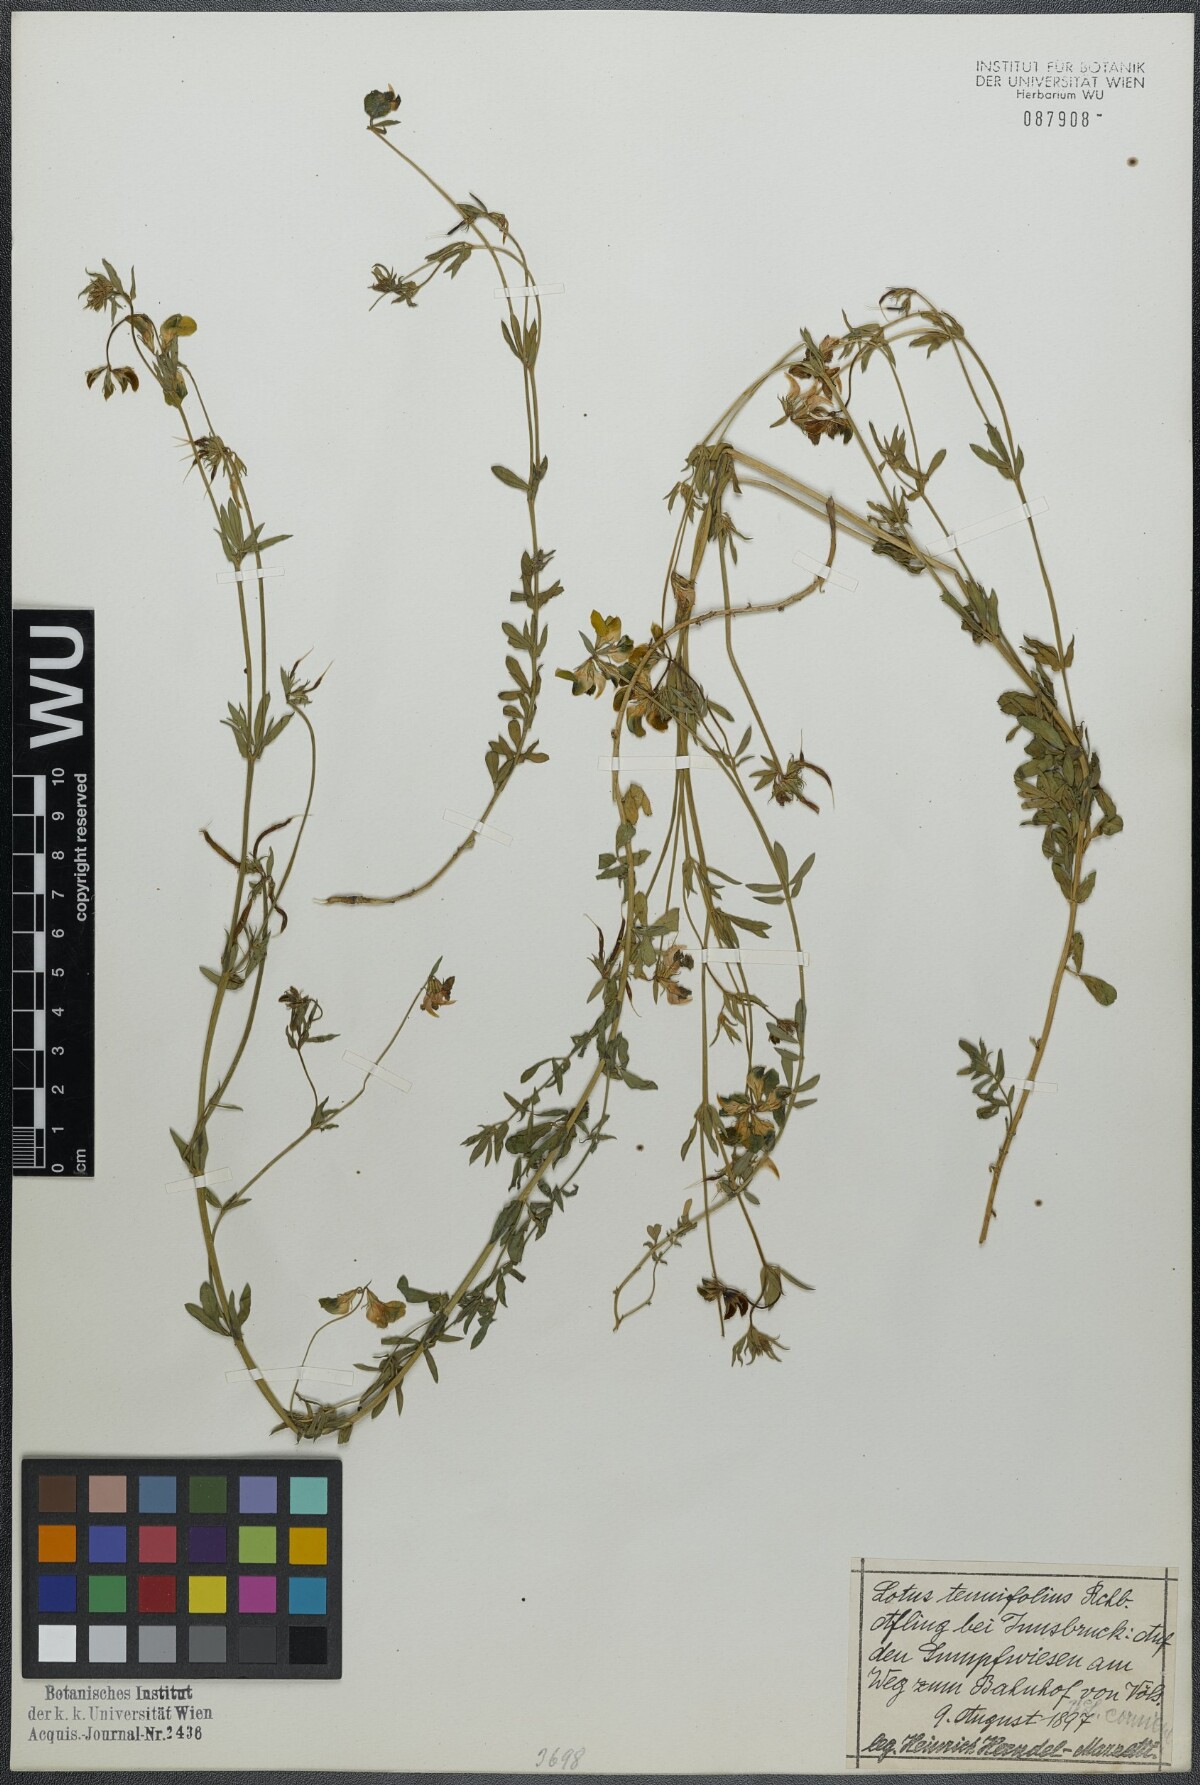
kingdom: Plantae
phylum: Tracheophyta
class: Magnoliopsida
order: Fabales
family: Fabaceae
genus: Lotus
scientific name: Lotus tenuis
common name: Narrow-leaved bird's-foot-trefoil
